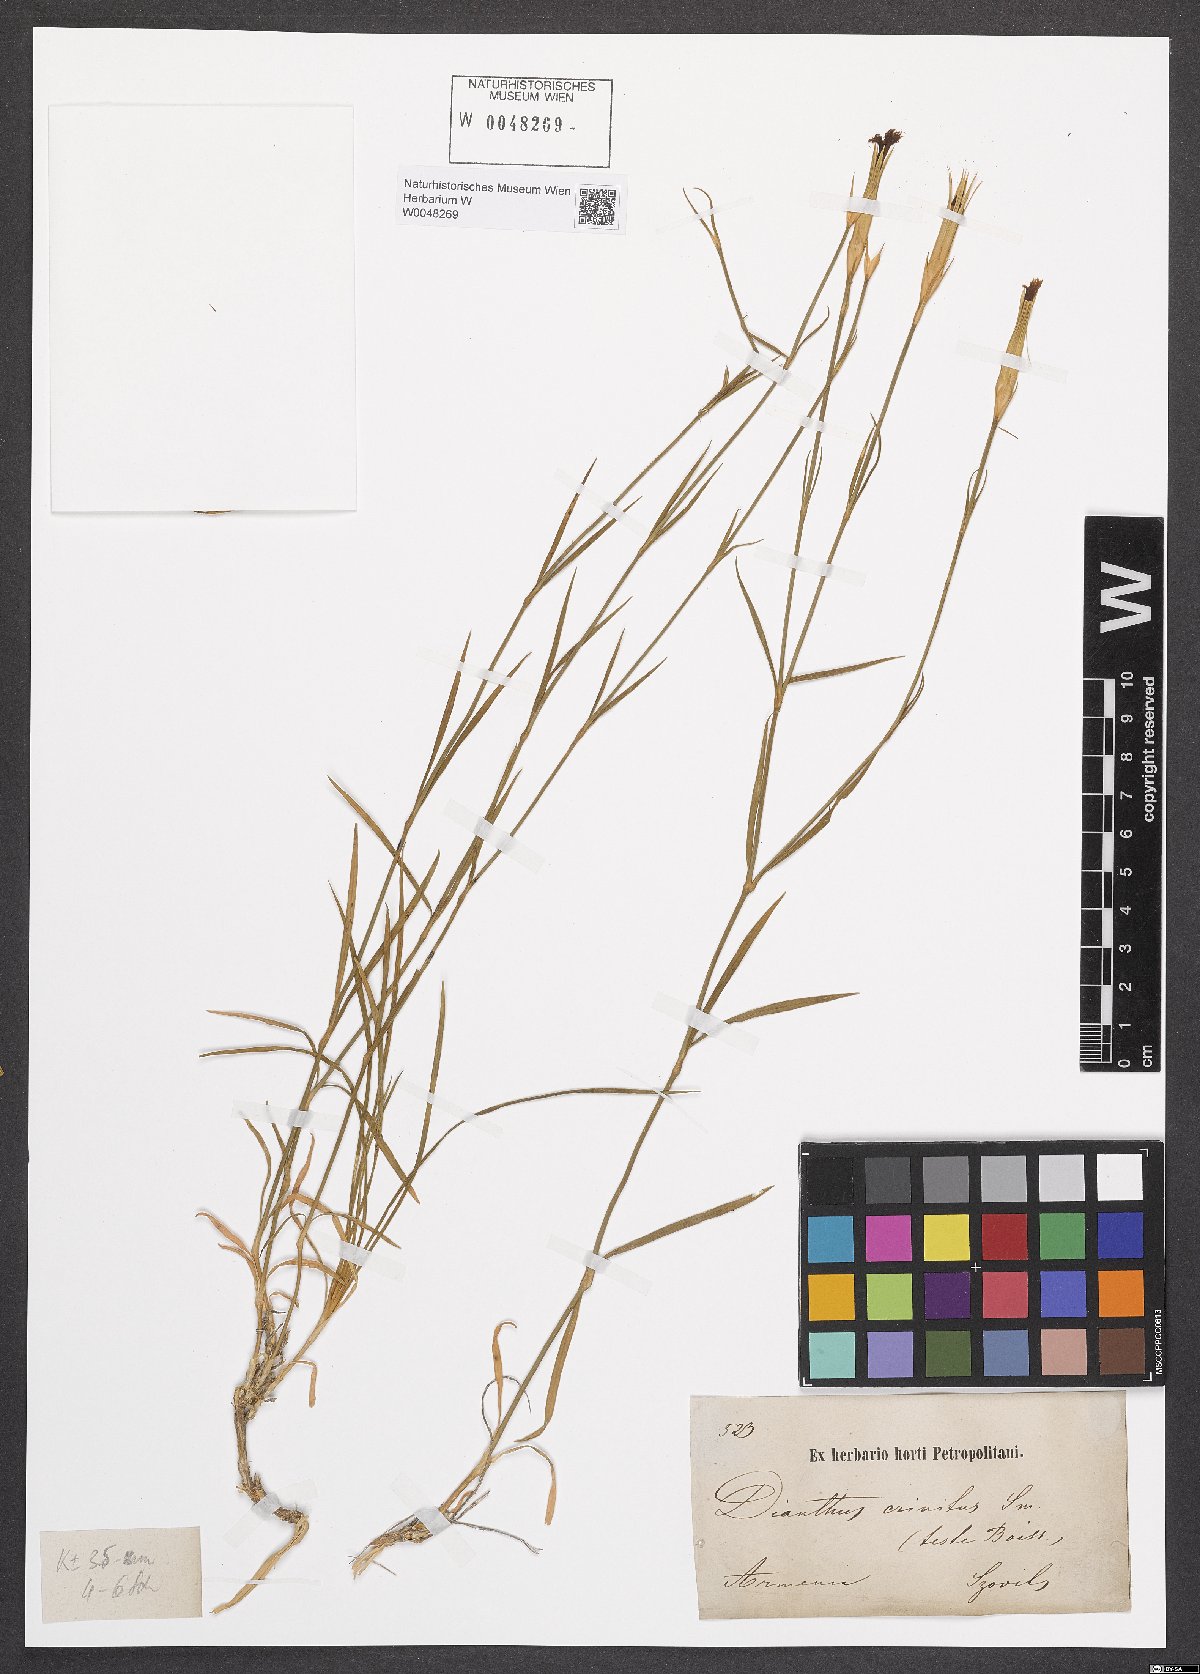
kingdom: Plantae
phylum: Tracheophyta
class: Magnoliopsida
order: Caryophyllales
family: Caryophyllaceae
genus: Dianthus
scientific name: Dianthus crinitus
